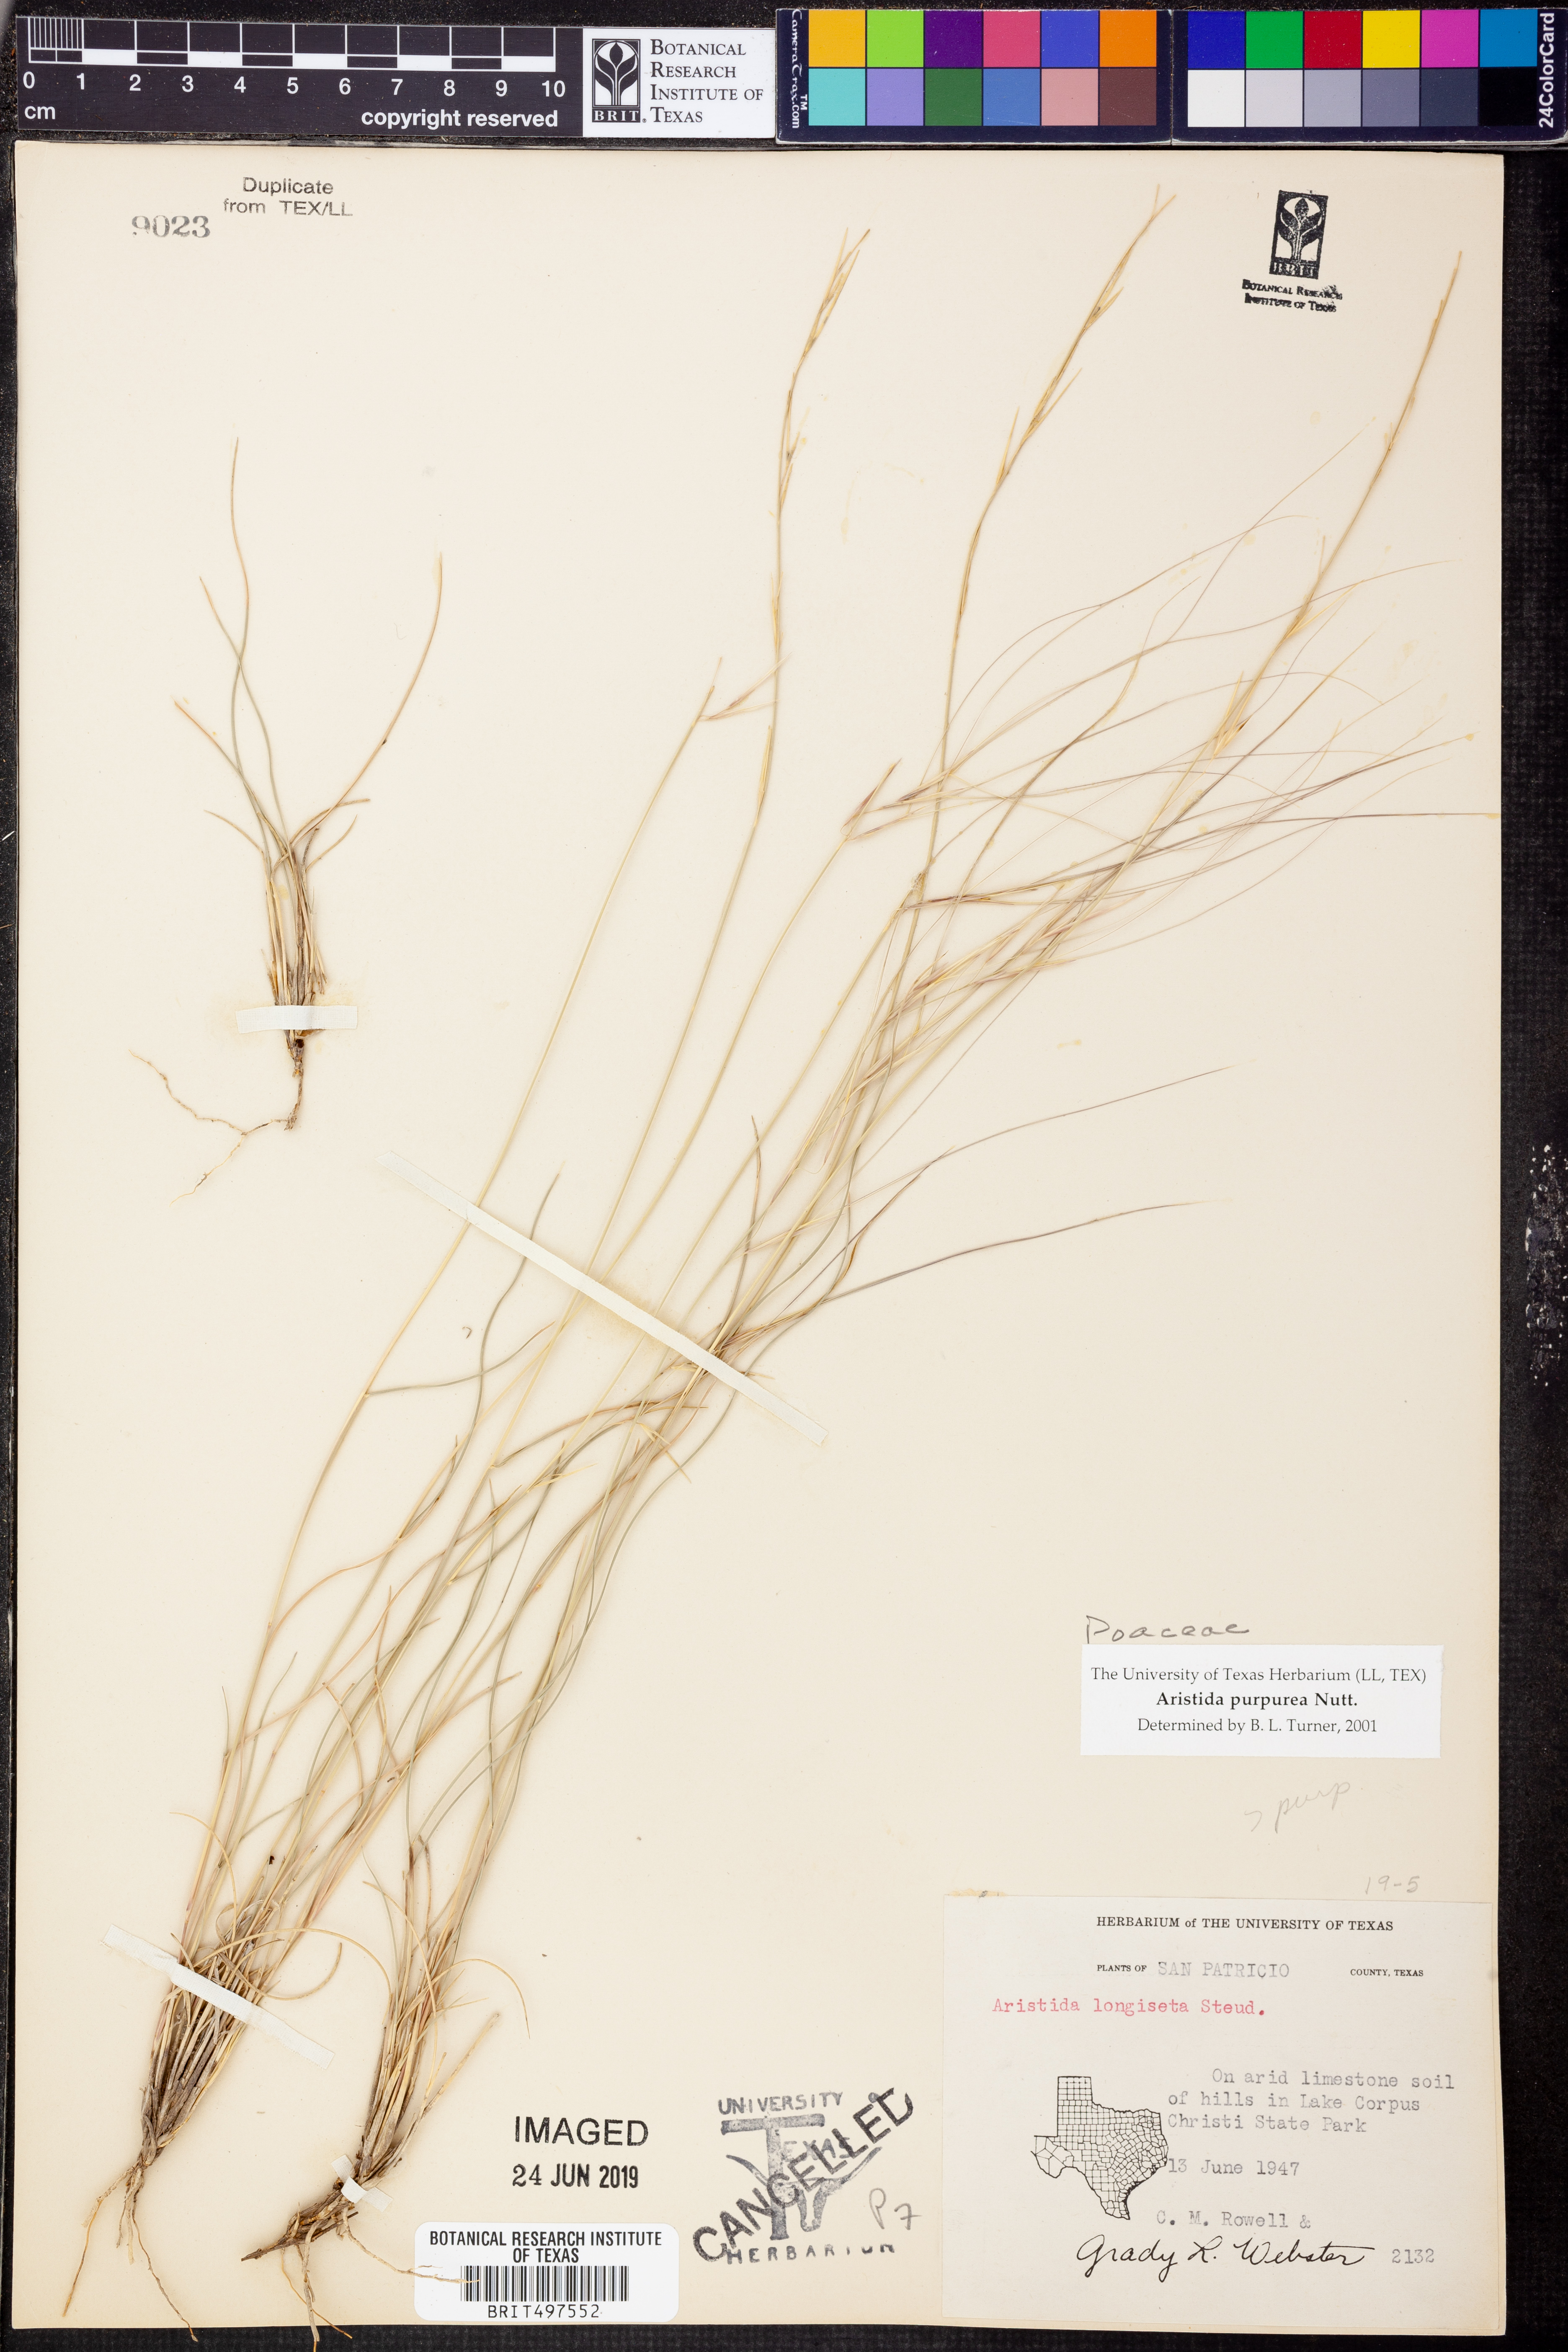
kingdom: Plantae
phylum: Tracheophyta
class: Liliopsida
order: Poales
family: Poaceae
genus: Aristida
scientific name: Aristida purpurea
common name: Purple threeawn
